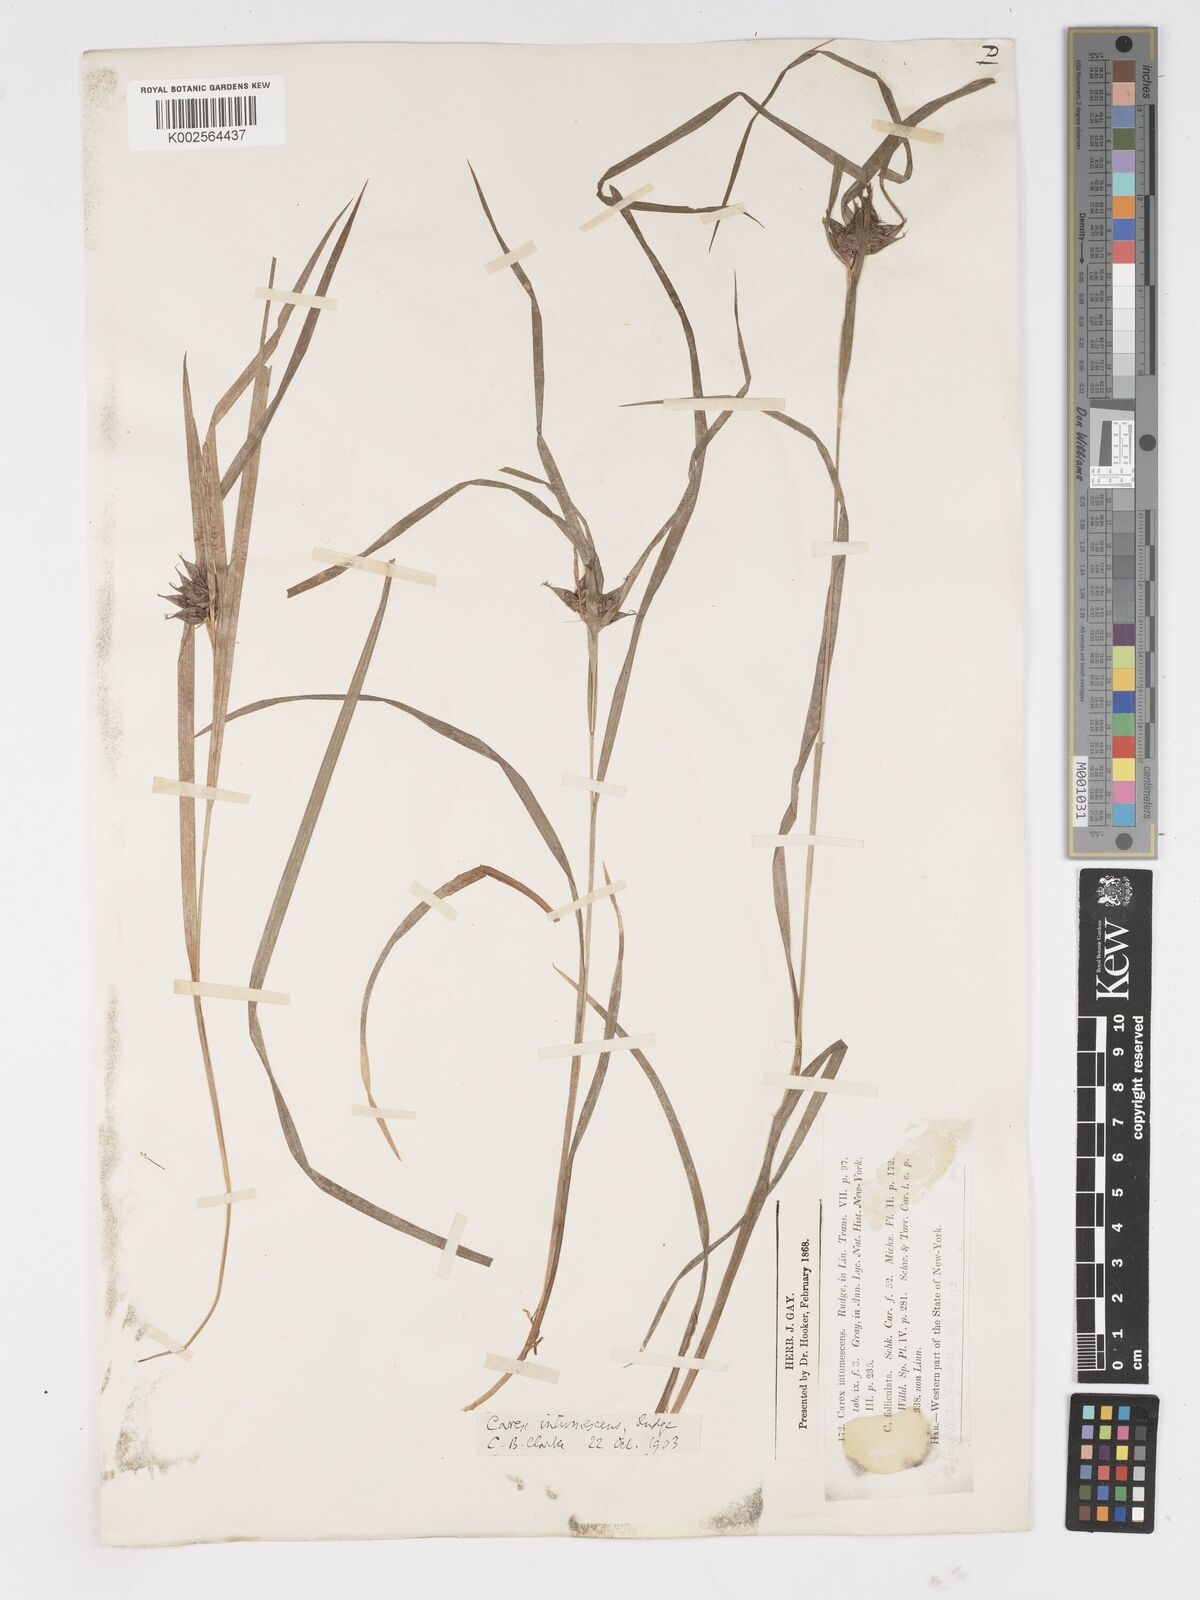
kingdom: Plantae
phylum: Tracheophyta
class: Liliopsida
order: Poales
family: Cyperaceae
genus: Carex
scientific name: Carex intumescens
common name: Greater bladder sedge
